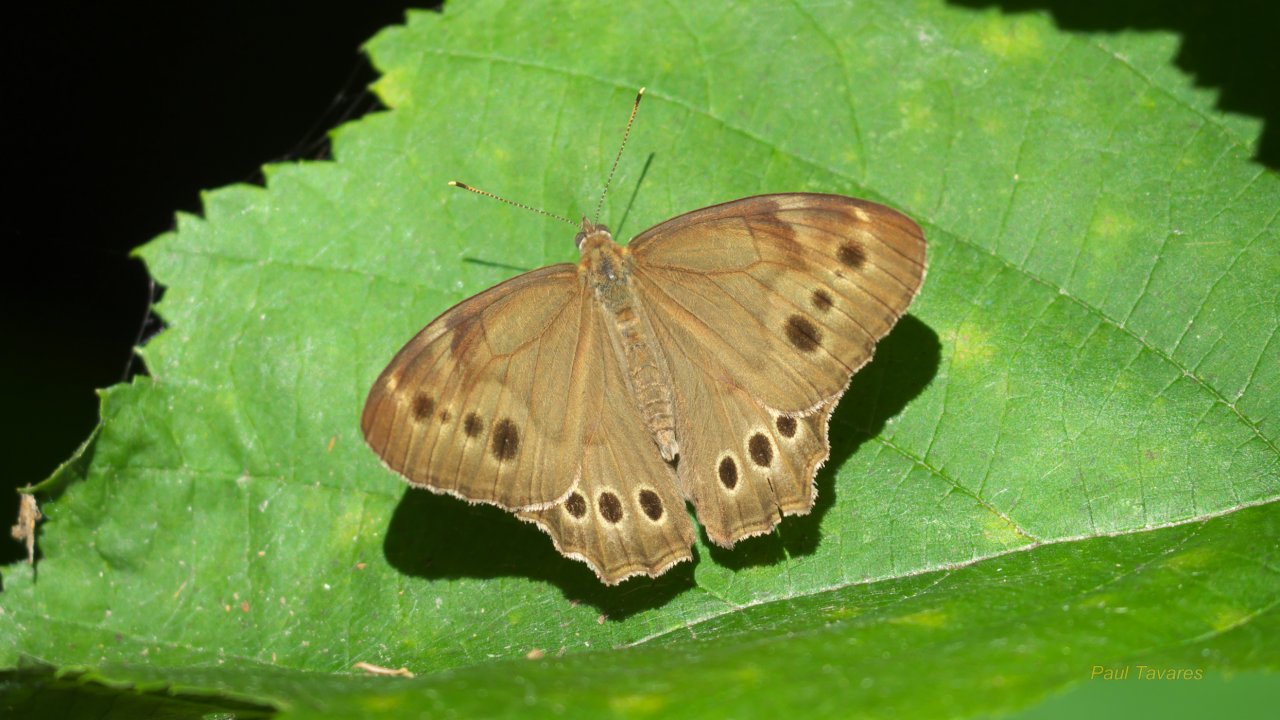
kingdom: Animalia
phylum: Arthropoda
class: Insecta
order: Lepidoptera
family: Nymphalidae
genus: Lethe
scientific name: Lethe anthedon
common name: Northern Pearly-Eye
